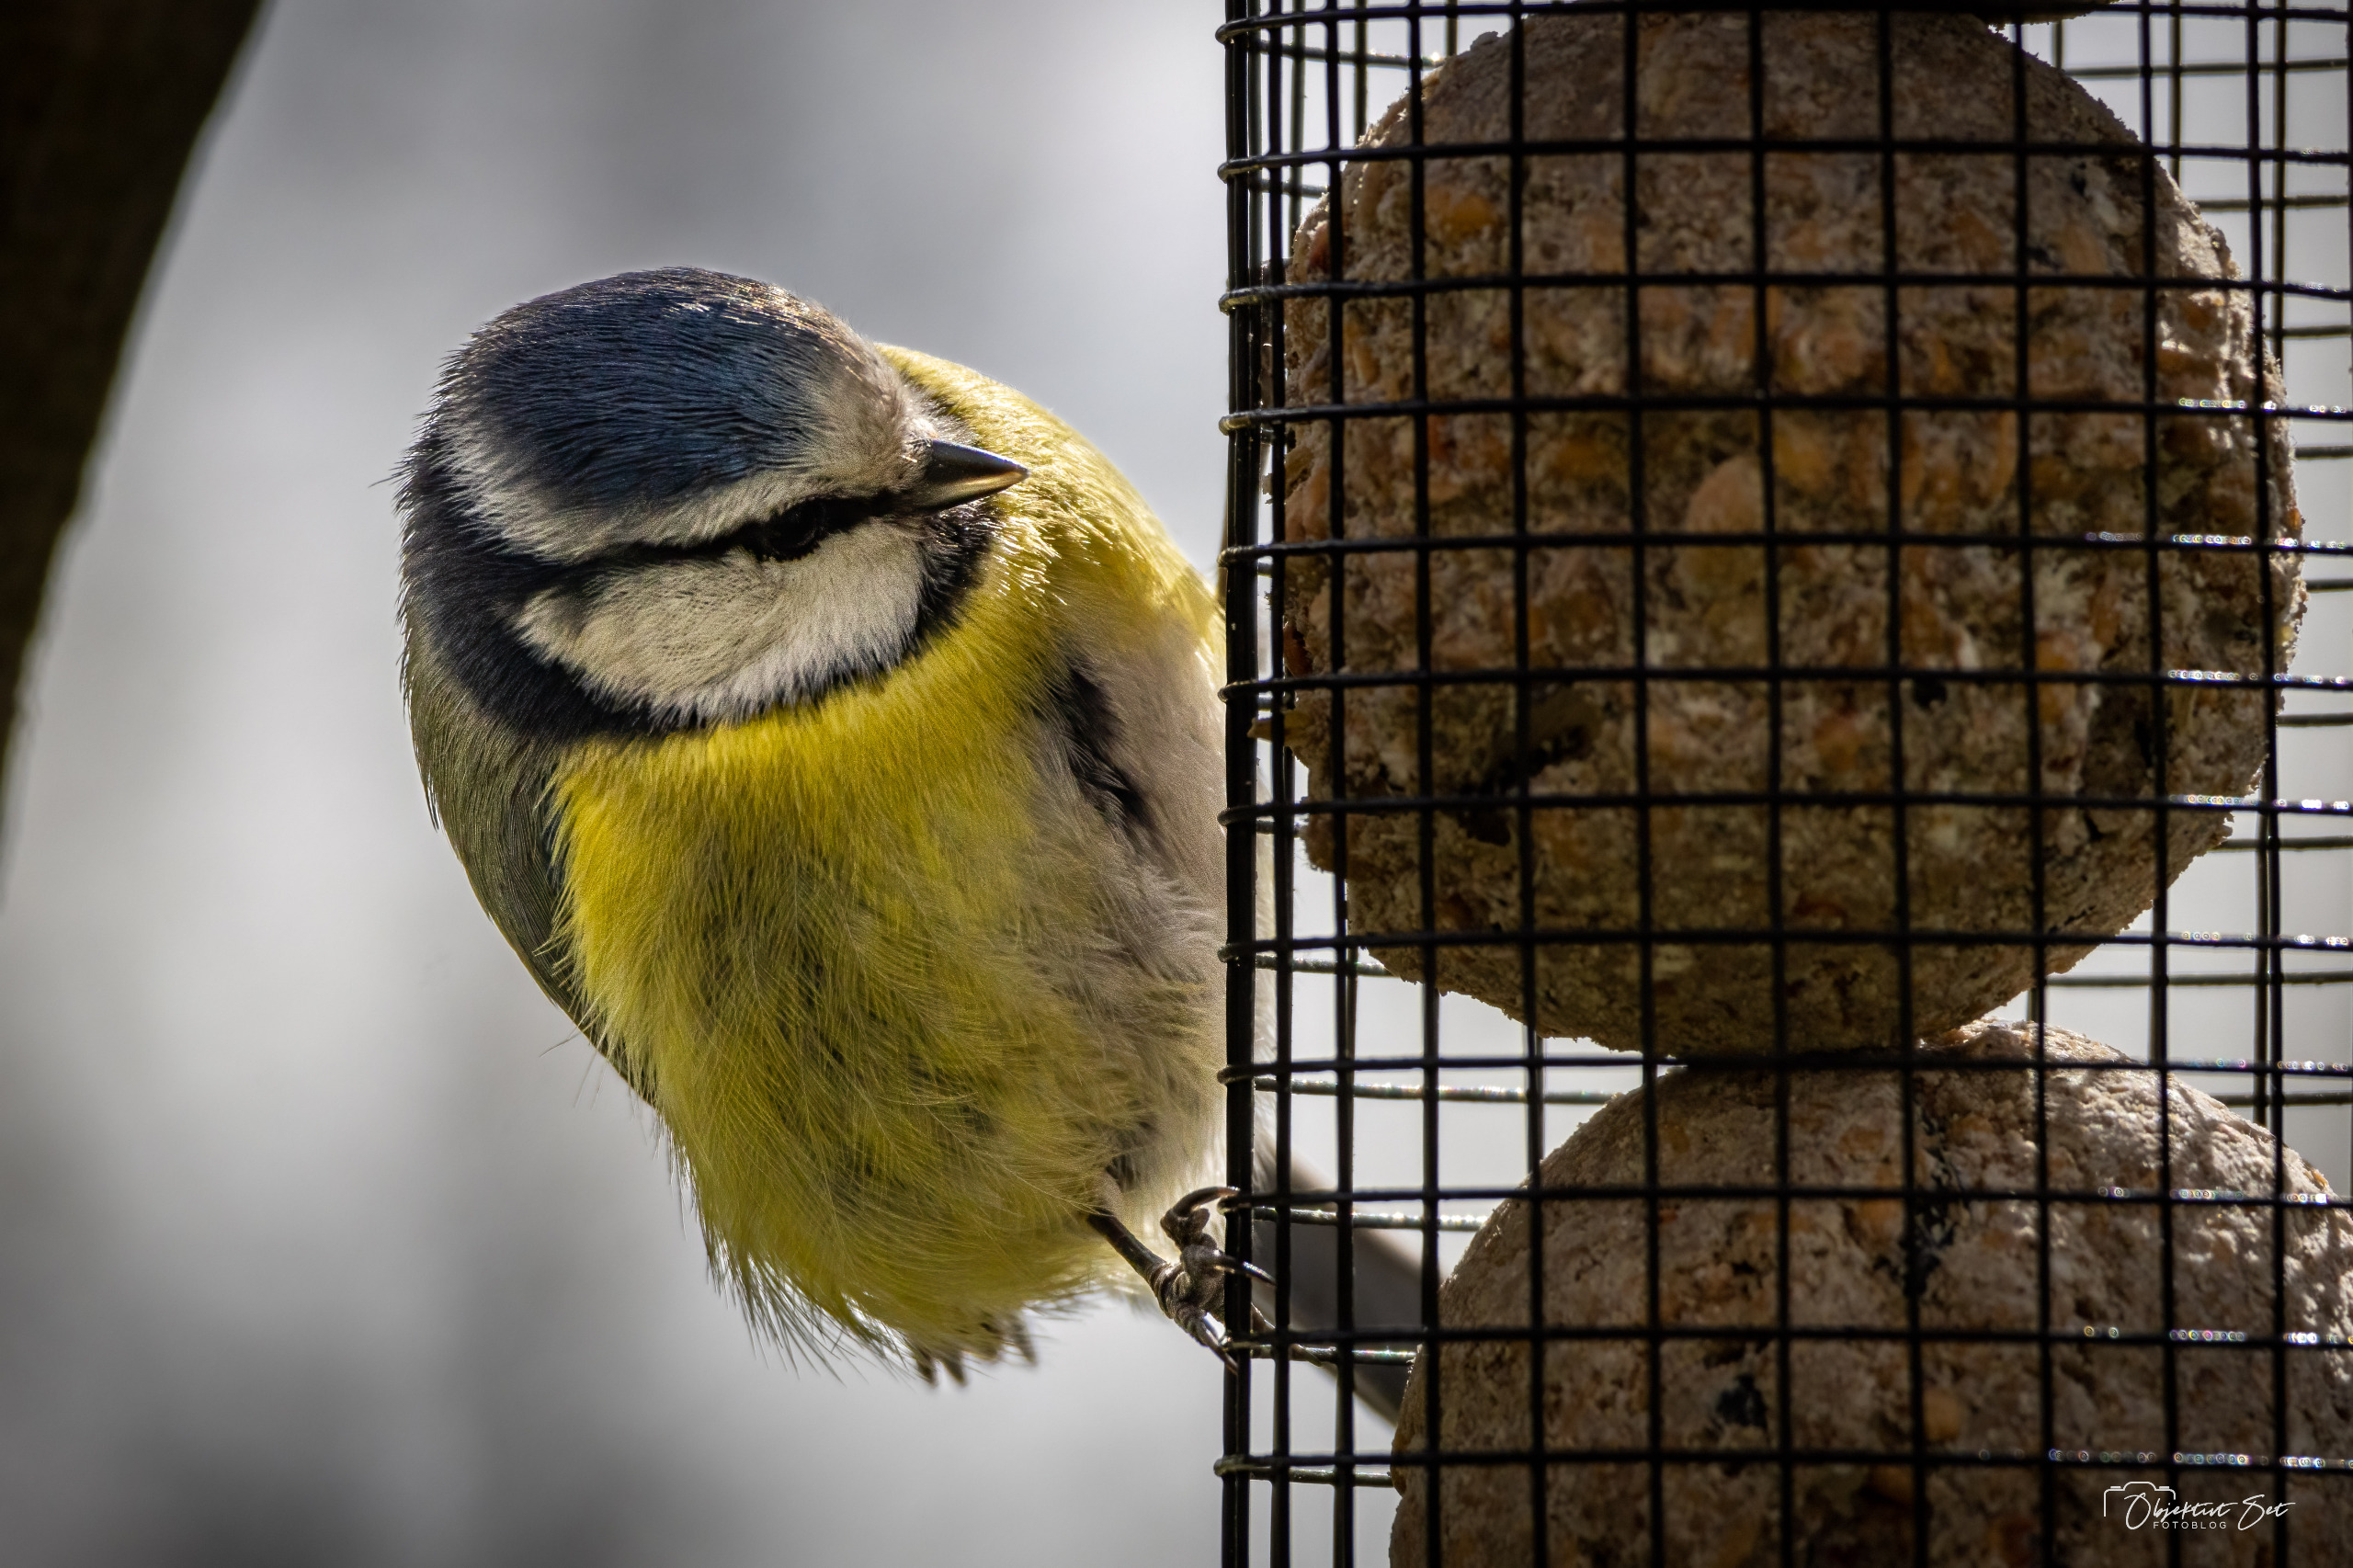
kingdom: Animalia
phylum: Chordata
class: Aves
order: Passeriformes
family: Paridae
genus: Cyanistes
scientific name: Cyanistes caeruleus
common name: Blåmejse
